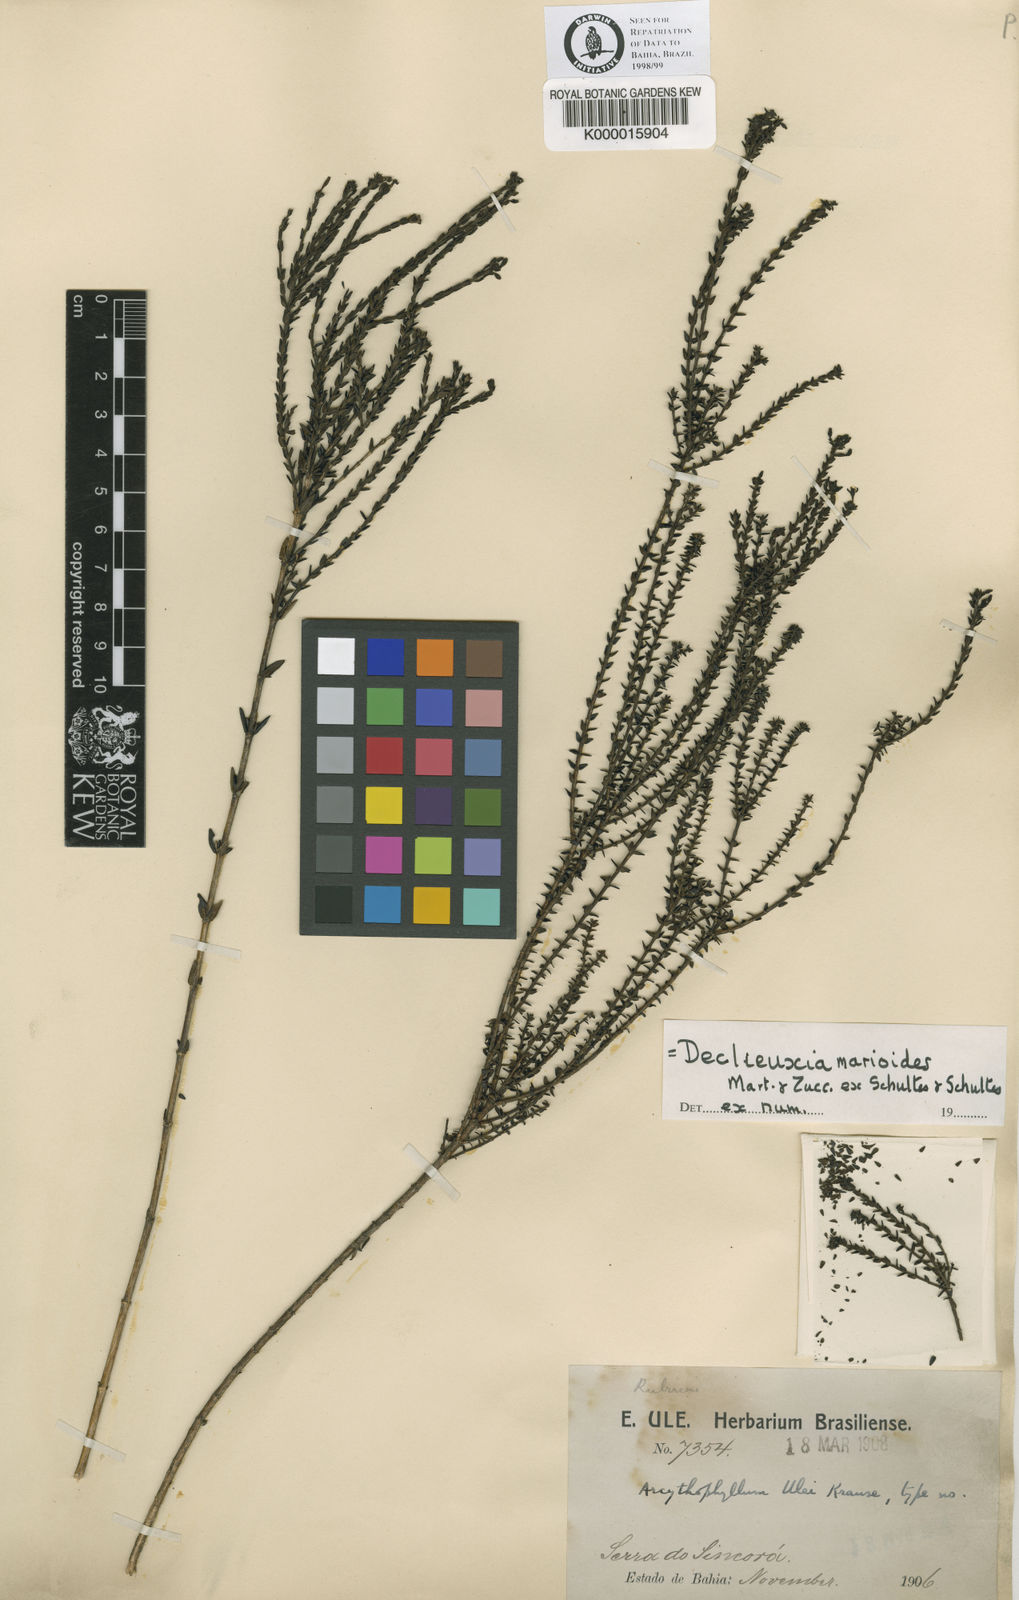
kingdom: Plantae
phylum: Tracheophyta
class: Magnoliopsida
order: Gentianales
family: Rubiaceae
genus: Declieuxia
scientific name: Declieuxia
